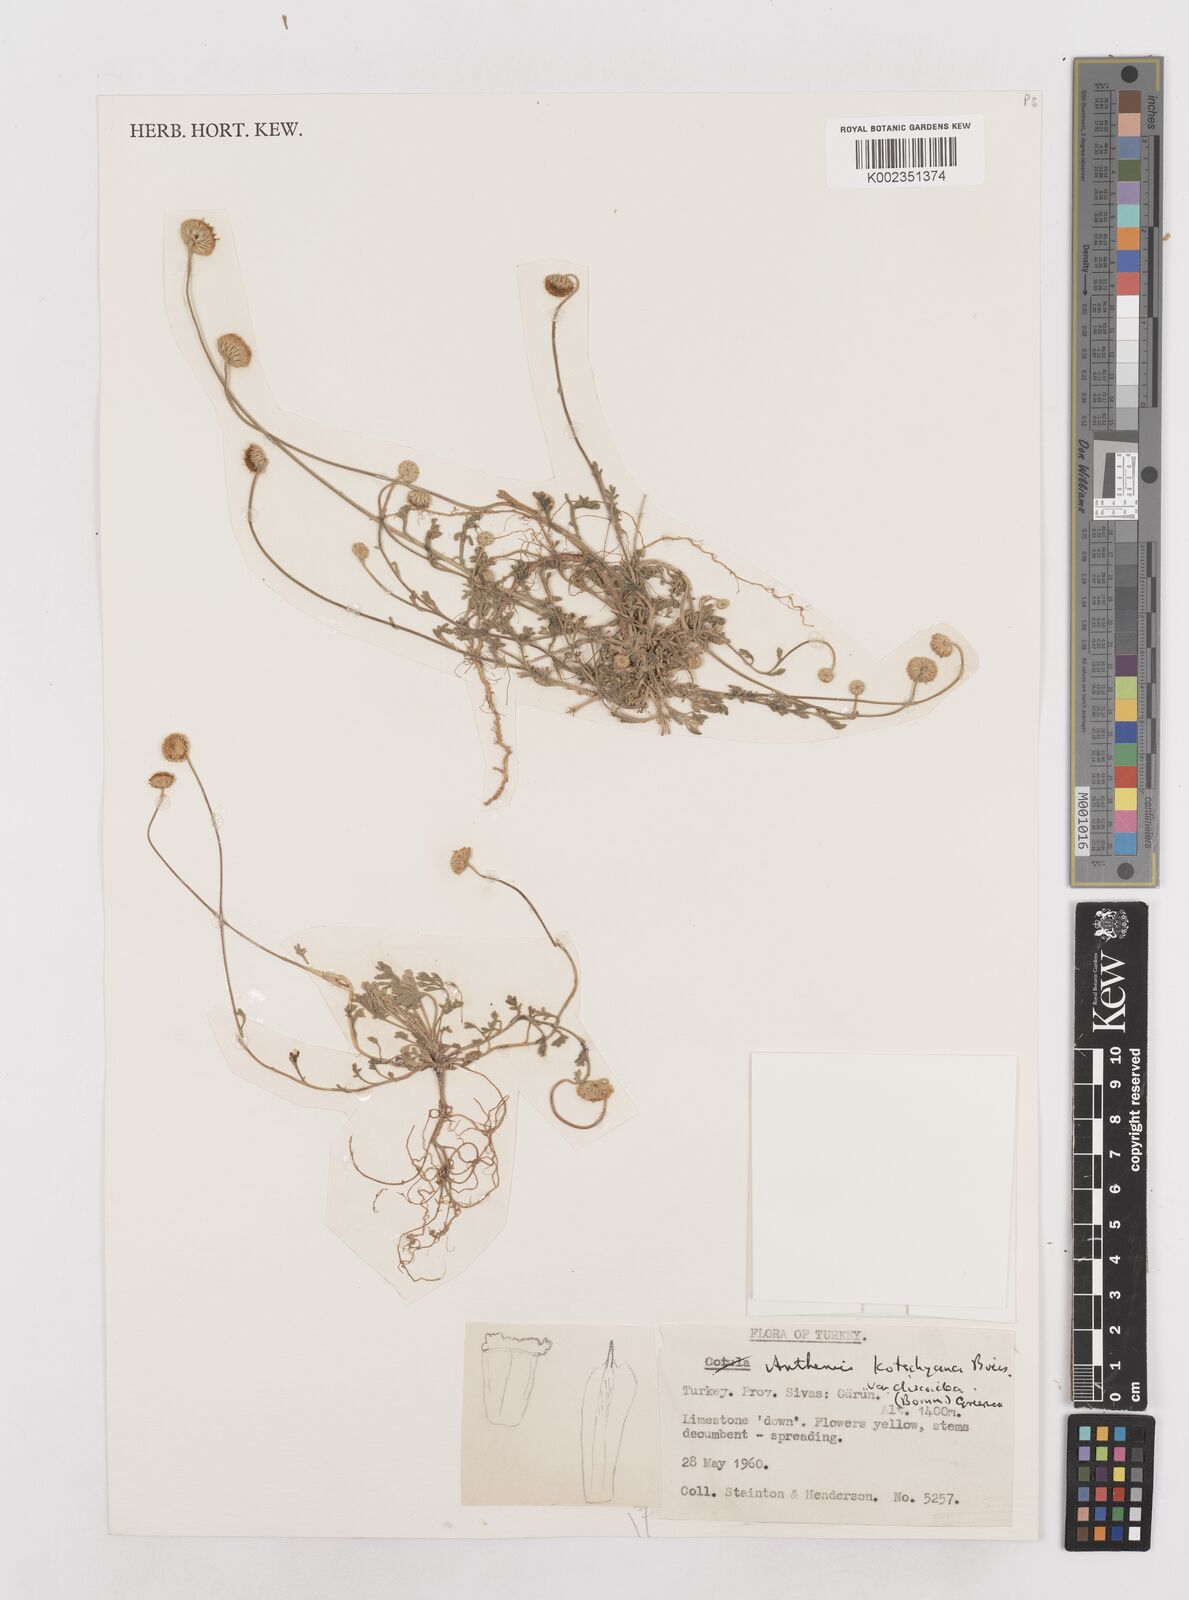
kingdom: Plantae
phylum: Tracheophyta
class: Magnoliopsida
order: Asterales
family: Asteraceae
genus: Anthemis
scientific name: Anthemis kotschyana
